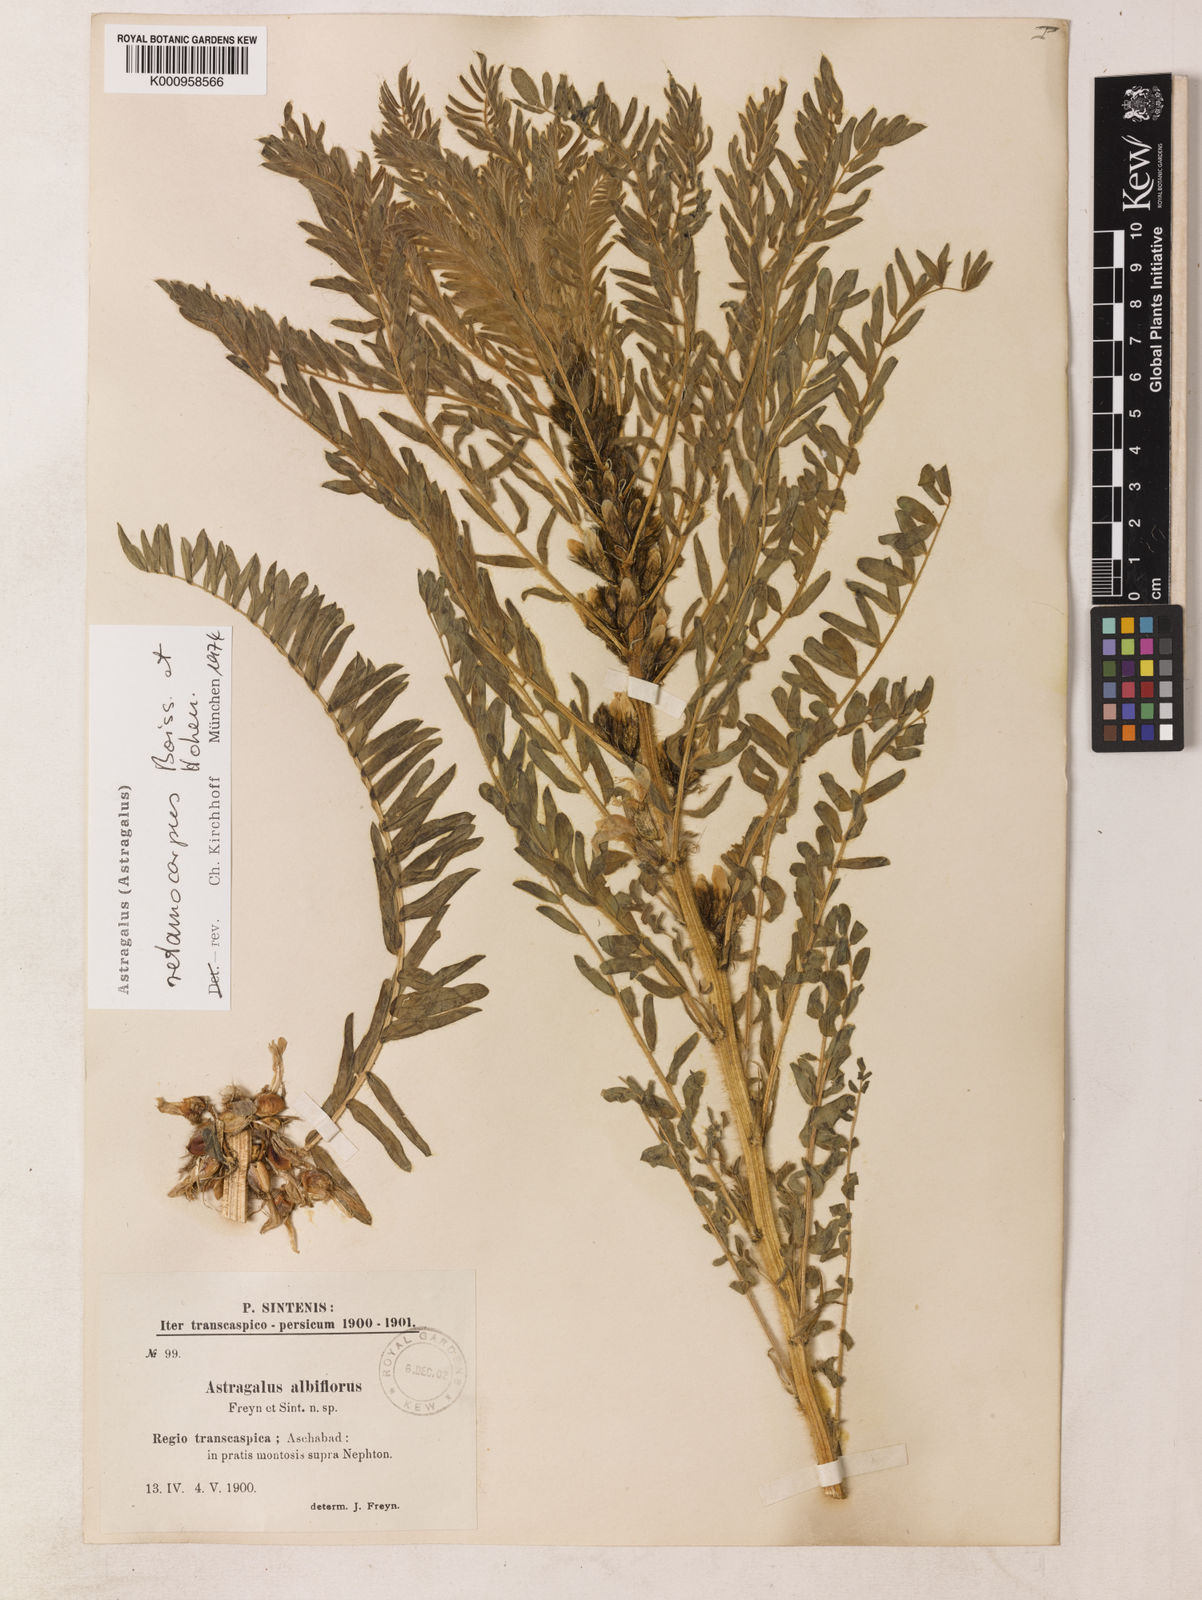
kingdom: Plantae
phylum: Tracheophyta
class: Magnoliopsida
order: Fabales
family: Fabaceae
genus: Astragalus
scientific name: Astragalus retamocarpus
